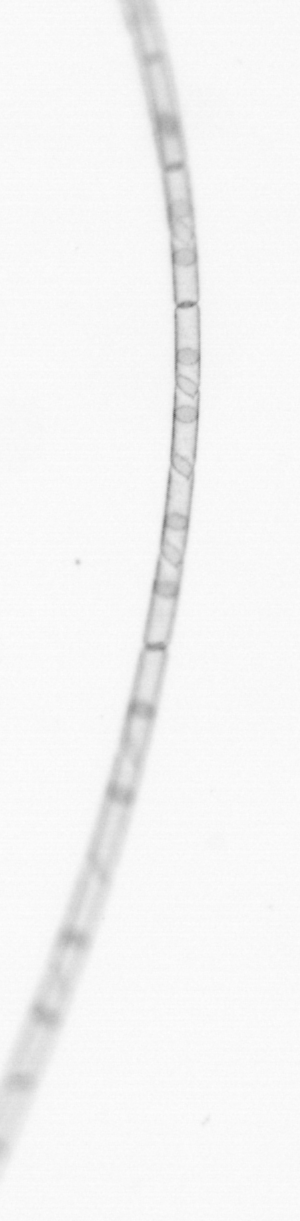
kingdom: Chromista
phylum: Ochrophyta
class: Bacillariophyceae
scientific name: Bacillariophyceae
